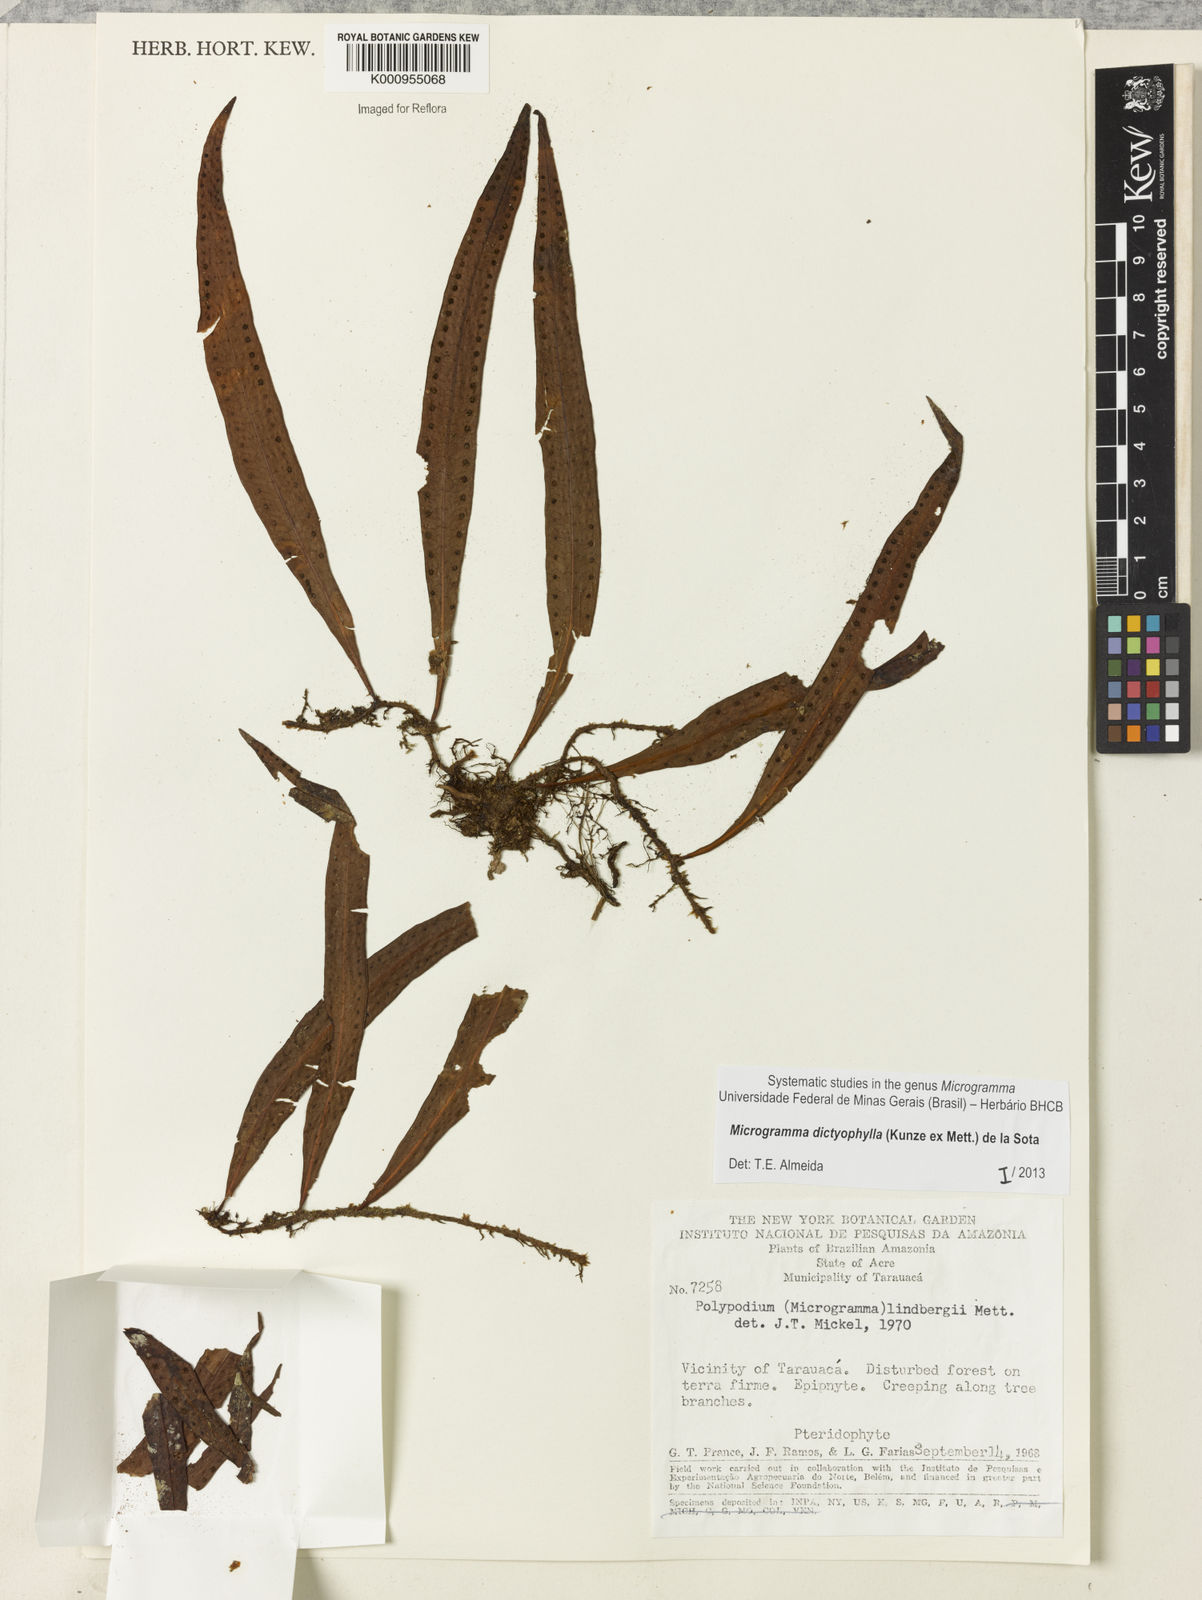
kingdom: Plantae
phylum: Tracheophyta
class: Polypodiopsida
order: Polypodiales
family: Polypodiaceae
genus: Microgramma
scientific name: Microgramma dictyophylla
